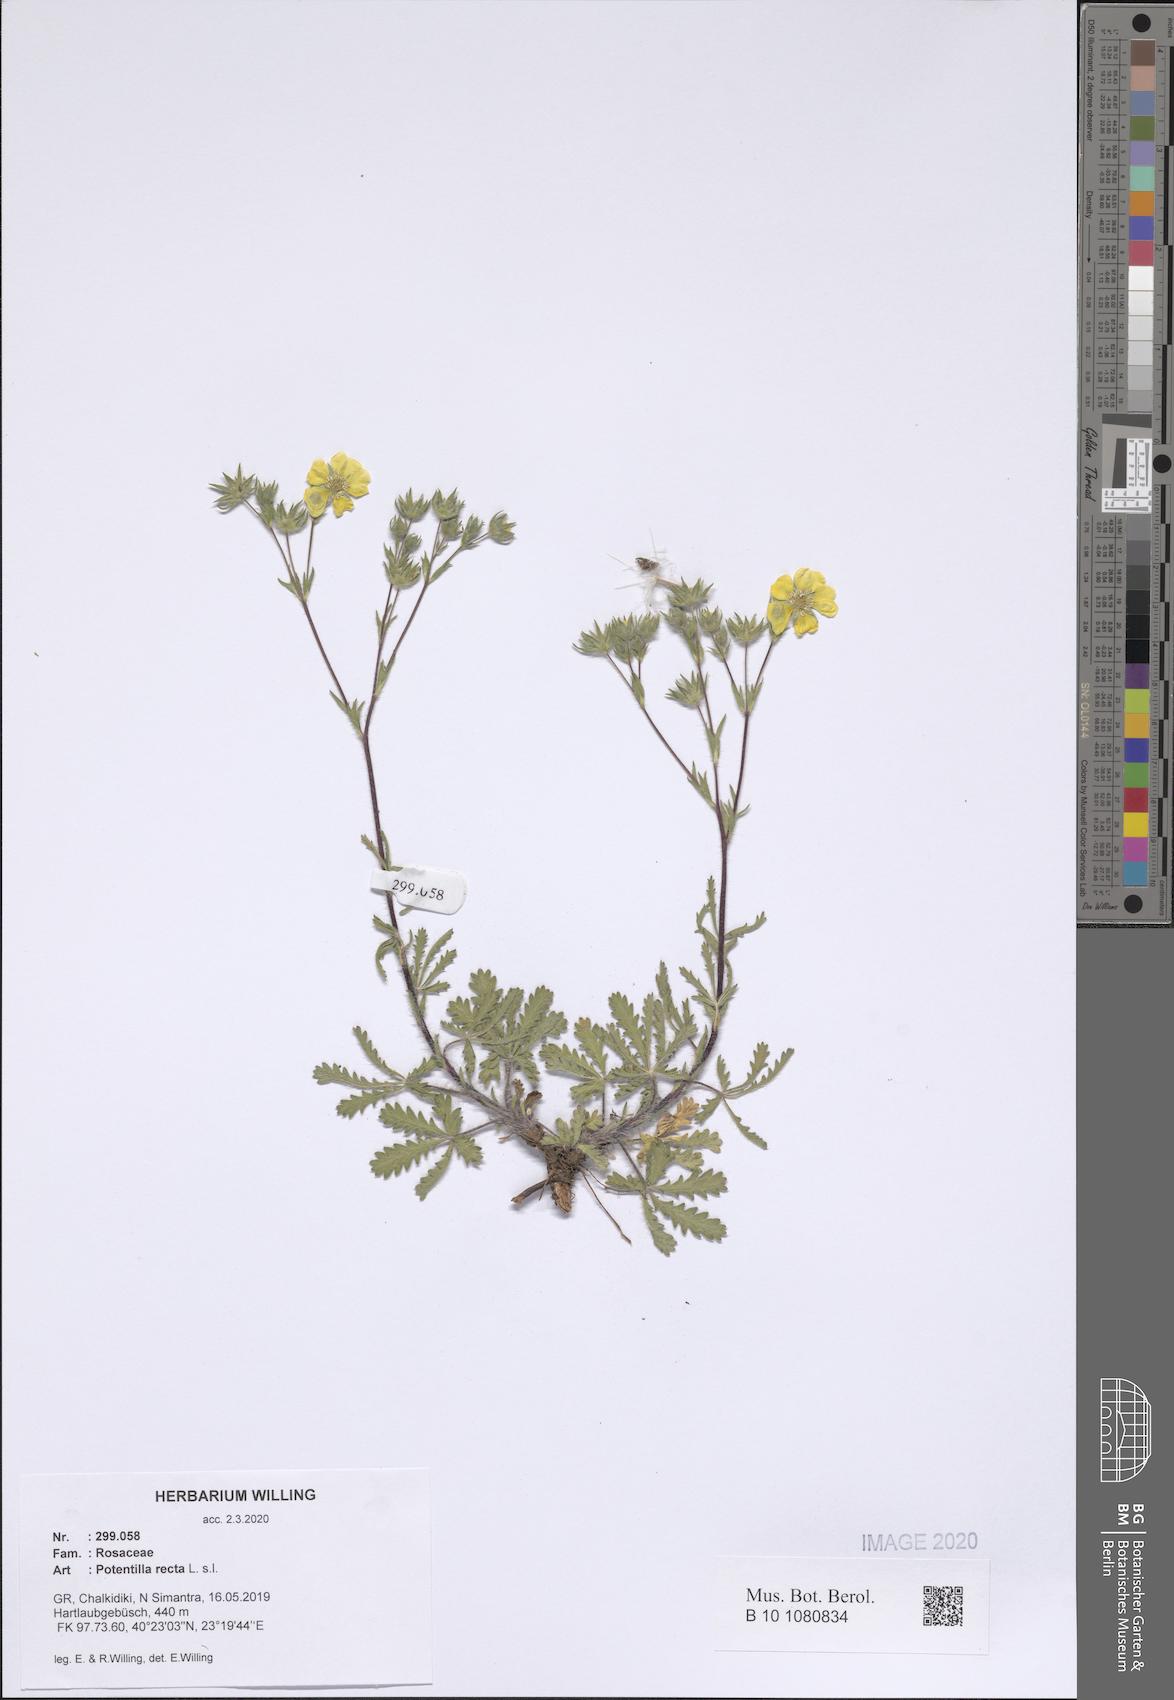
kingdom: Plantae
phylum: Tracheophyta
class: Magnoliopsida
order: Rosales
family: Rosaceae
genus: Potentilla
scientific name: Potentilla recta
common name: Sulphur cinquefoil
